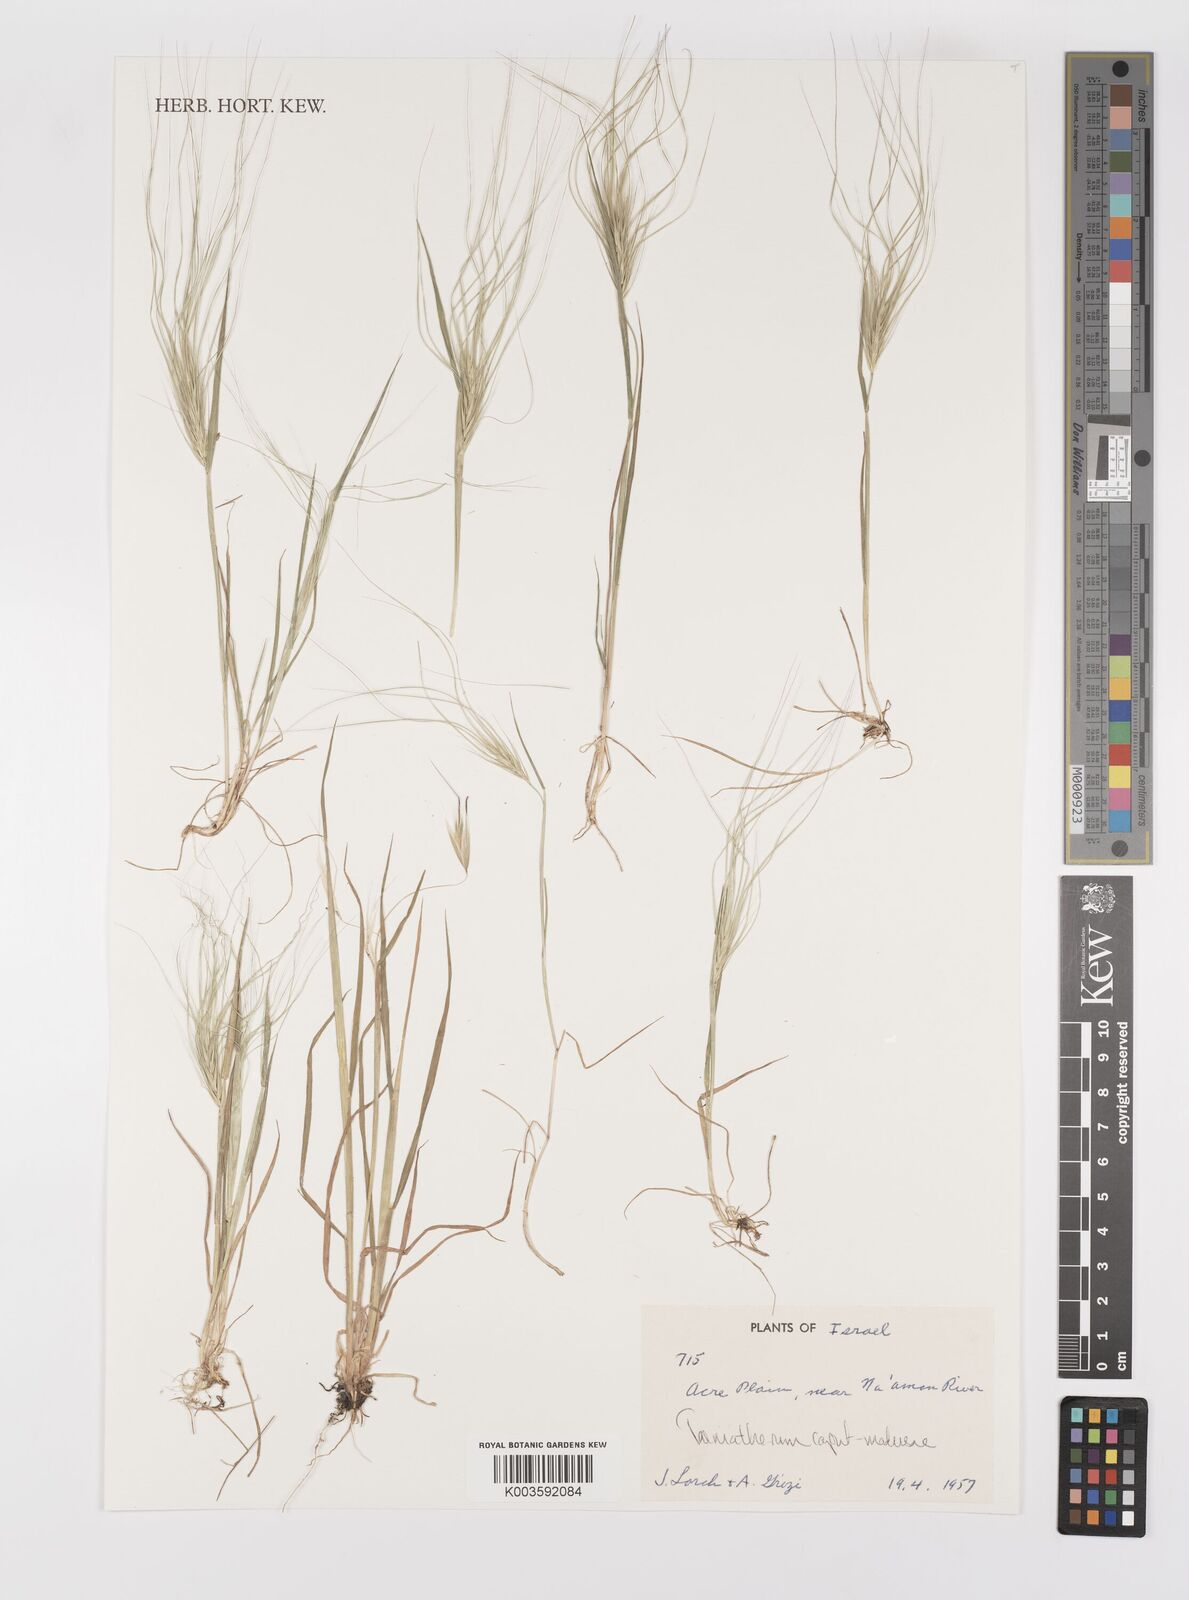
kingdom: Plantae
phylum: Tracheophyta
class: Liliopsida
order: Poales
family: Poaceae
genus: Taeniatherum
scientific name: Taeniatherum caput-medusae
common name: Medusahead
